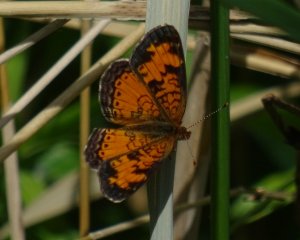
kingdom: Animalia
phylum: Arthropoda
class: Insecta
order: Lepidoptera
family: Nymphalidae
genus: Phyciodes
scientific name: Phyciodes tharos
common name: Northern Crescent
